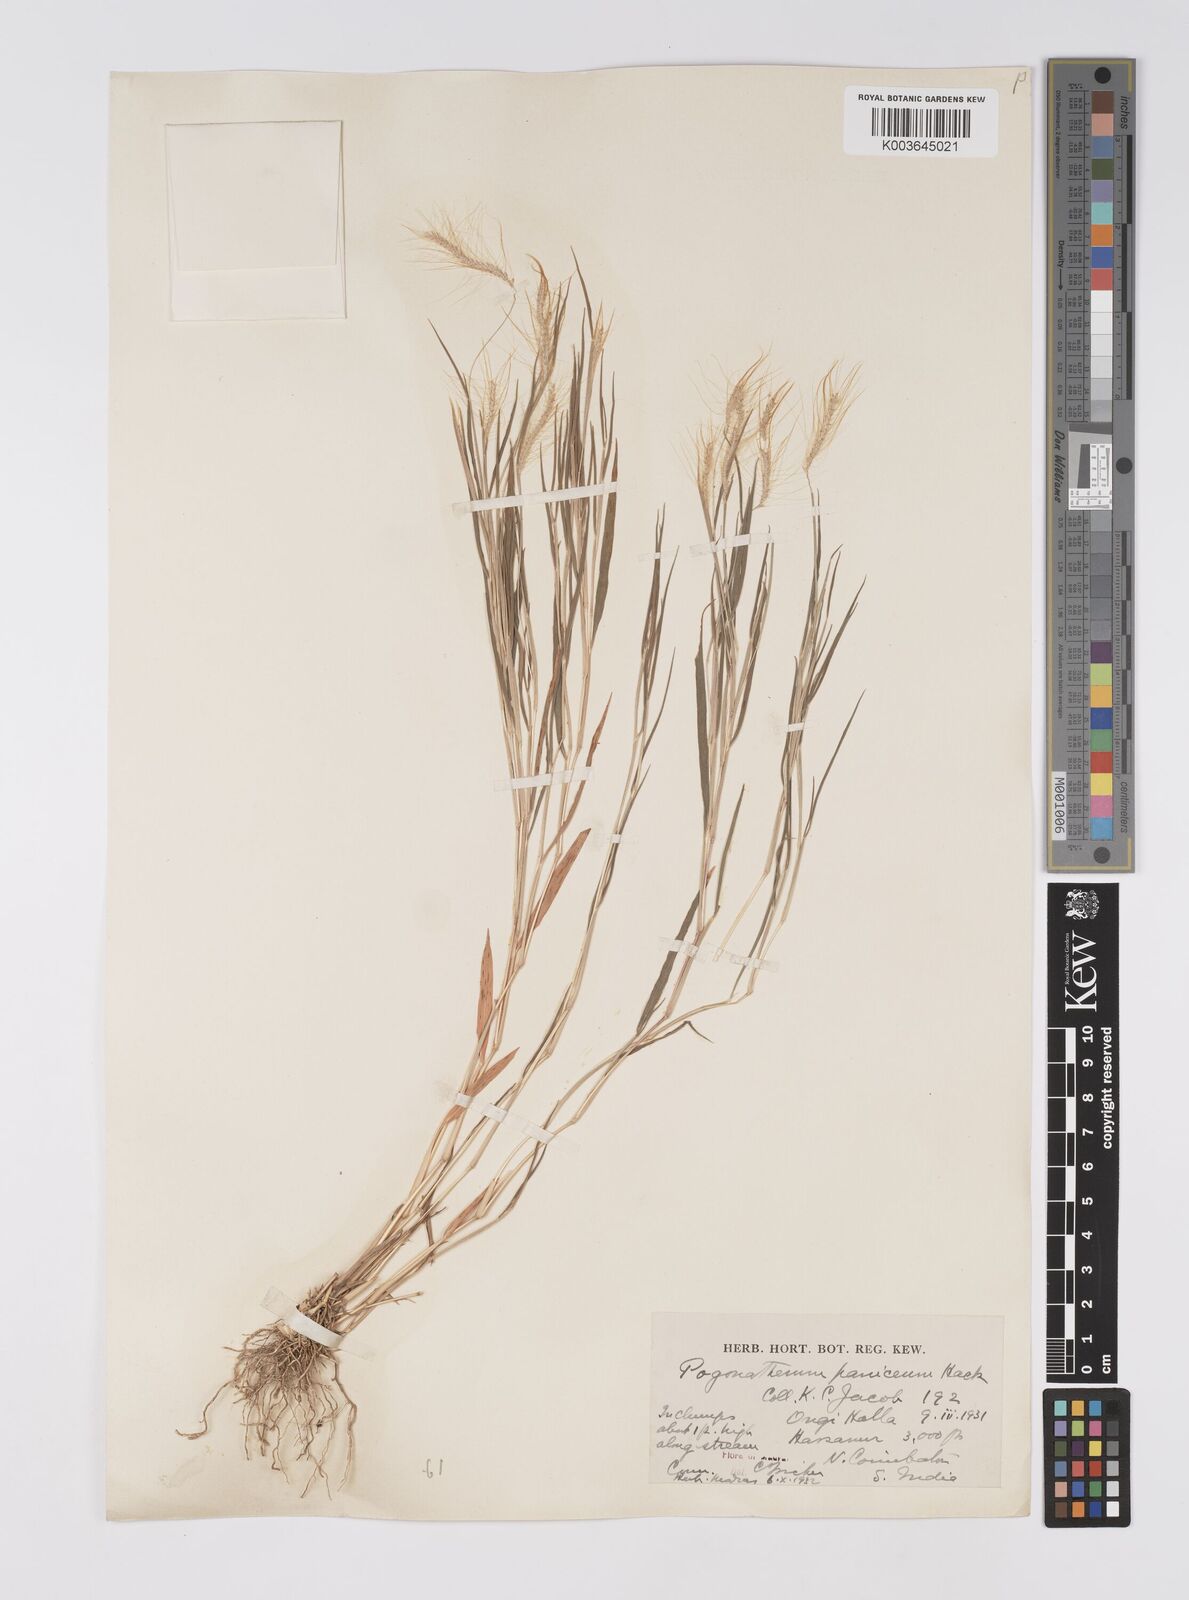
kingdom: Plantae
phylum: Tracheophyta
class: Liliopsida
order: Poales
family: Poaceae
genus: Pogonatherum
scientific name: Pogonatherum crinitum
